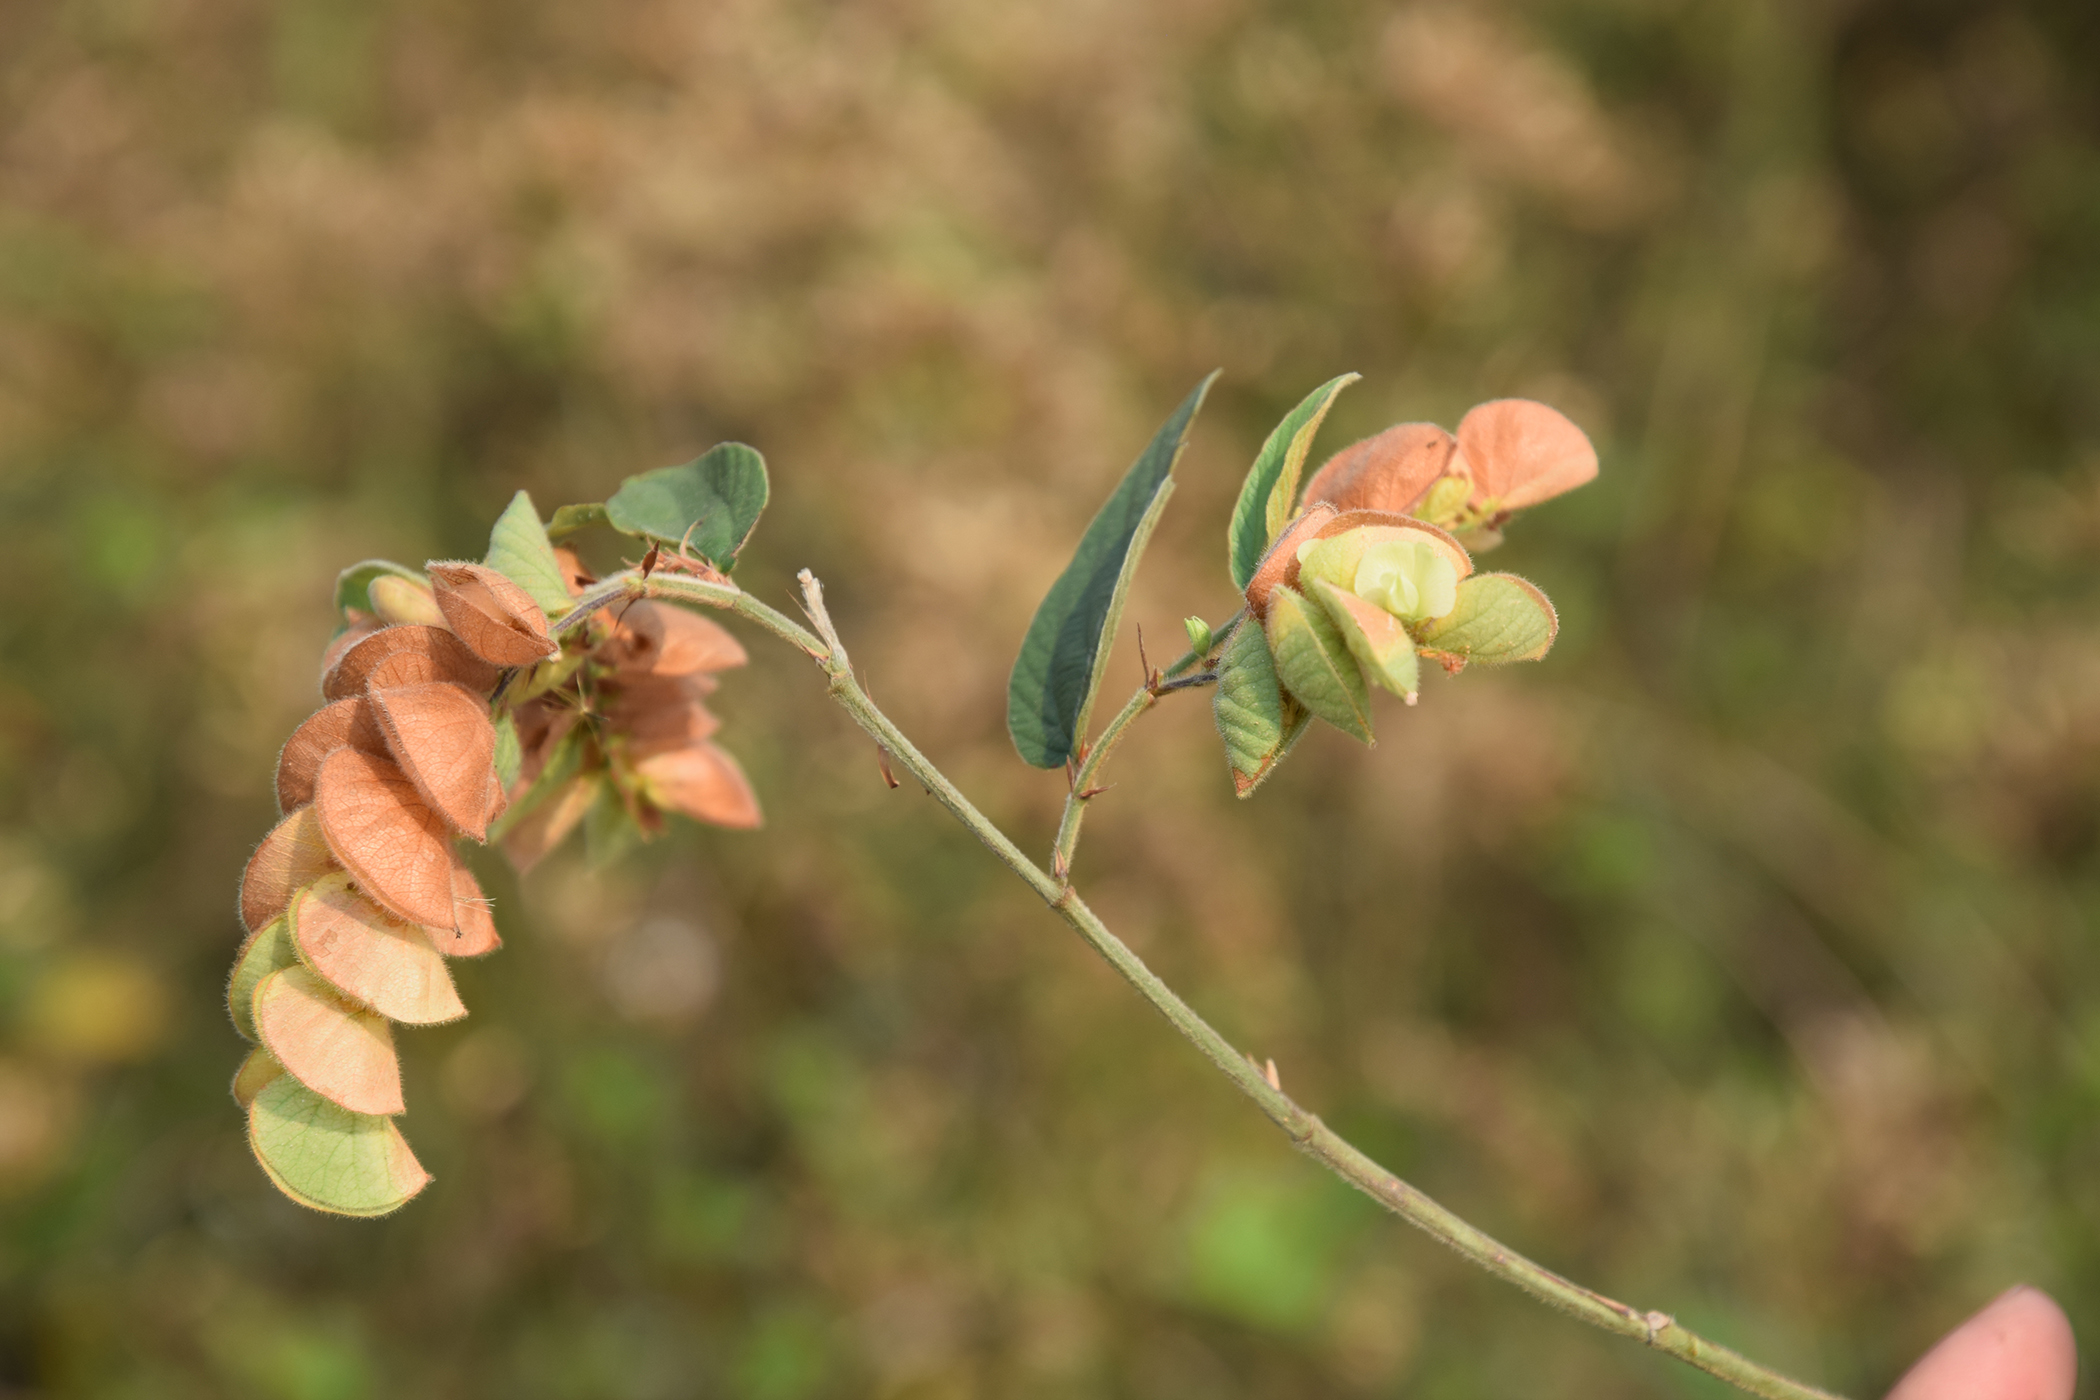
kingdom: Plantae
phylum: Tracheophyta
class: Magnoliopsida
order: Fabales
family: Fabaceae
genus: Flemingia
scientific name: Flemingia strobilifera
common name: Wild hops
